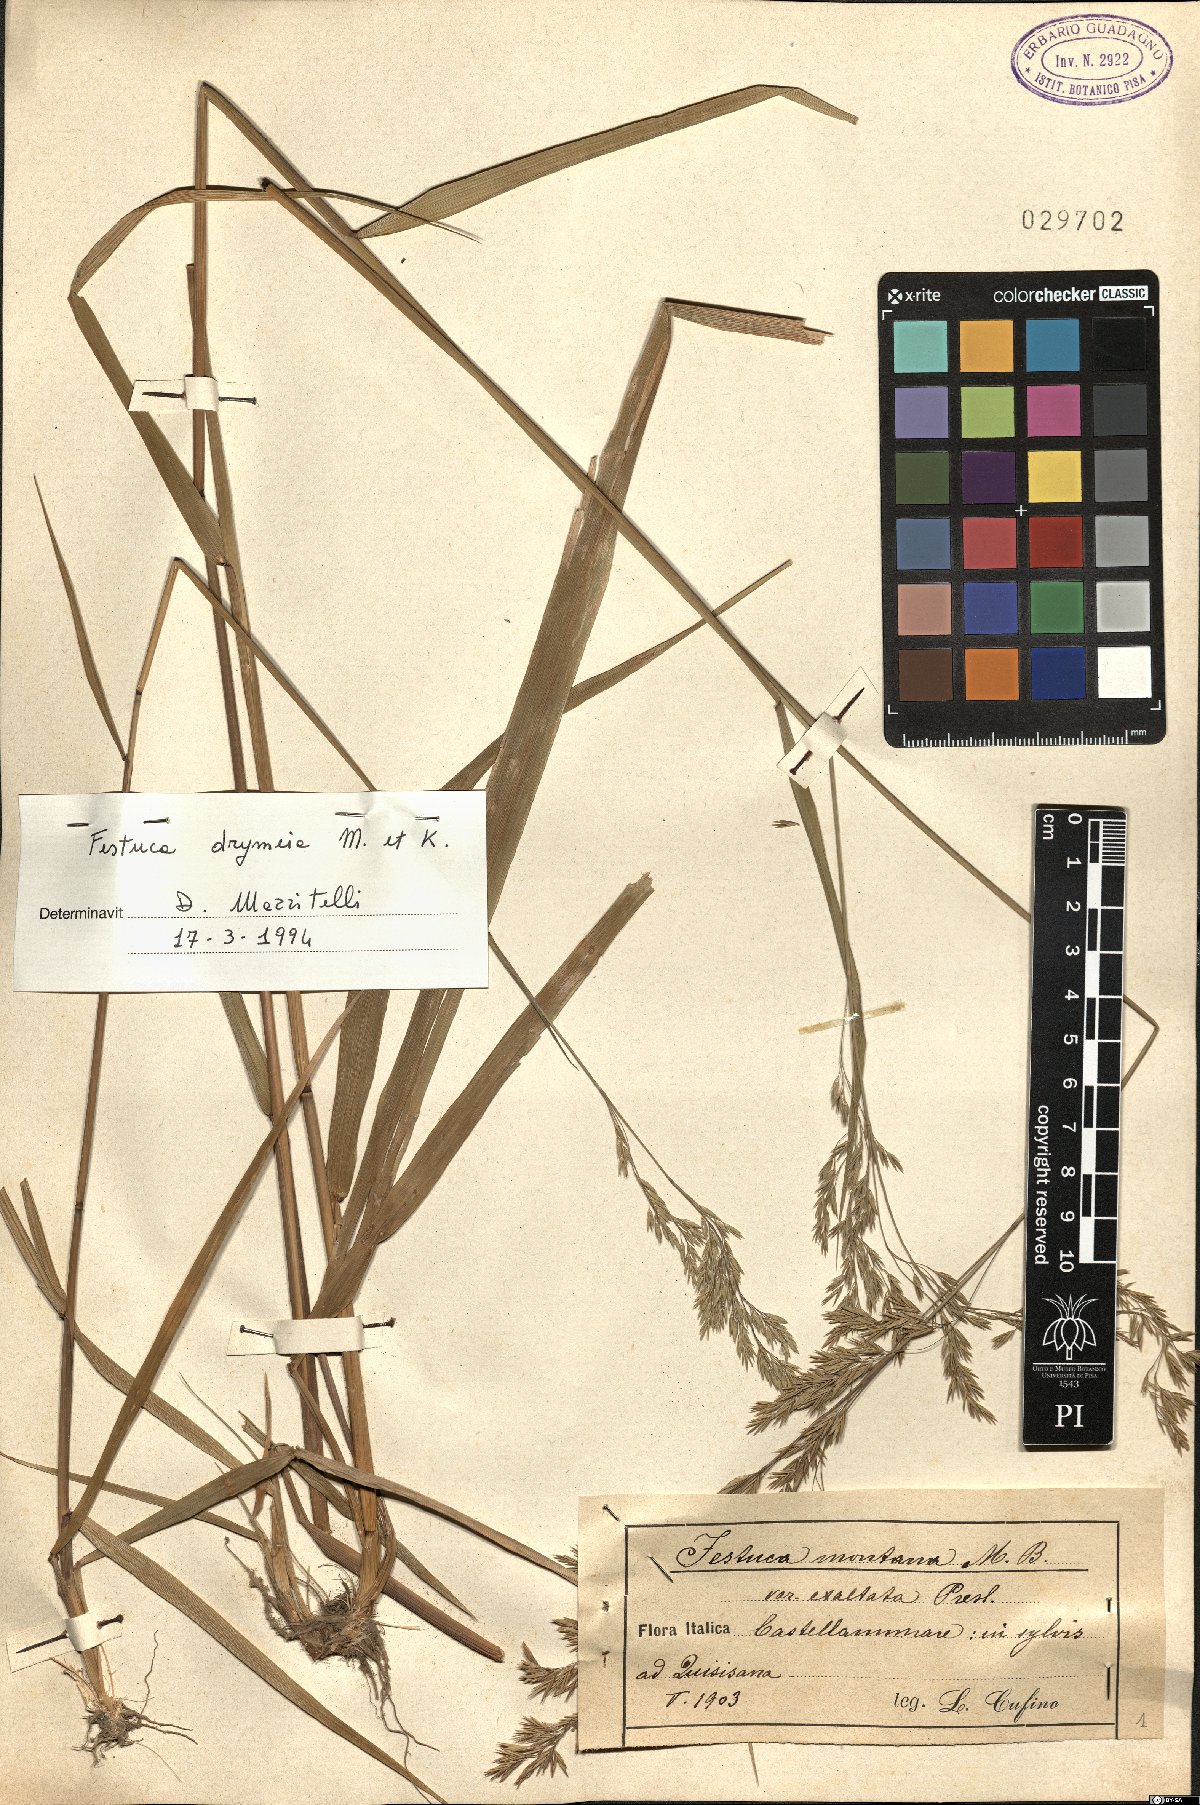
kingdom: Plantae
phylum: Tracheophyta
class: Liliopsida
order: Poales
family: Poaceae
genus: Festuca
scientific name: Festuca drymeja
